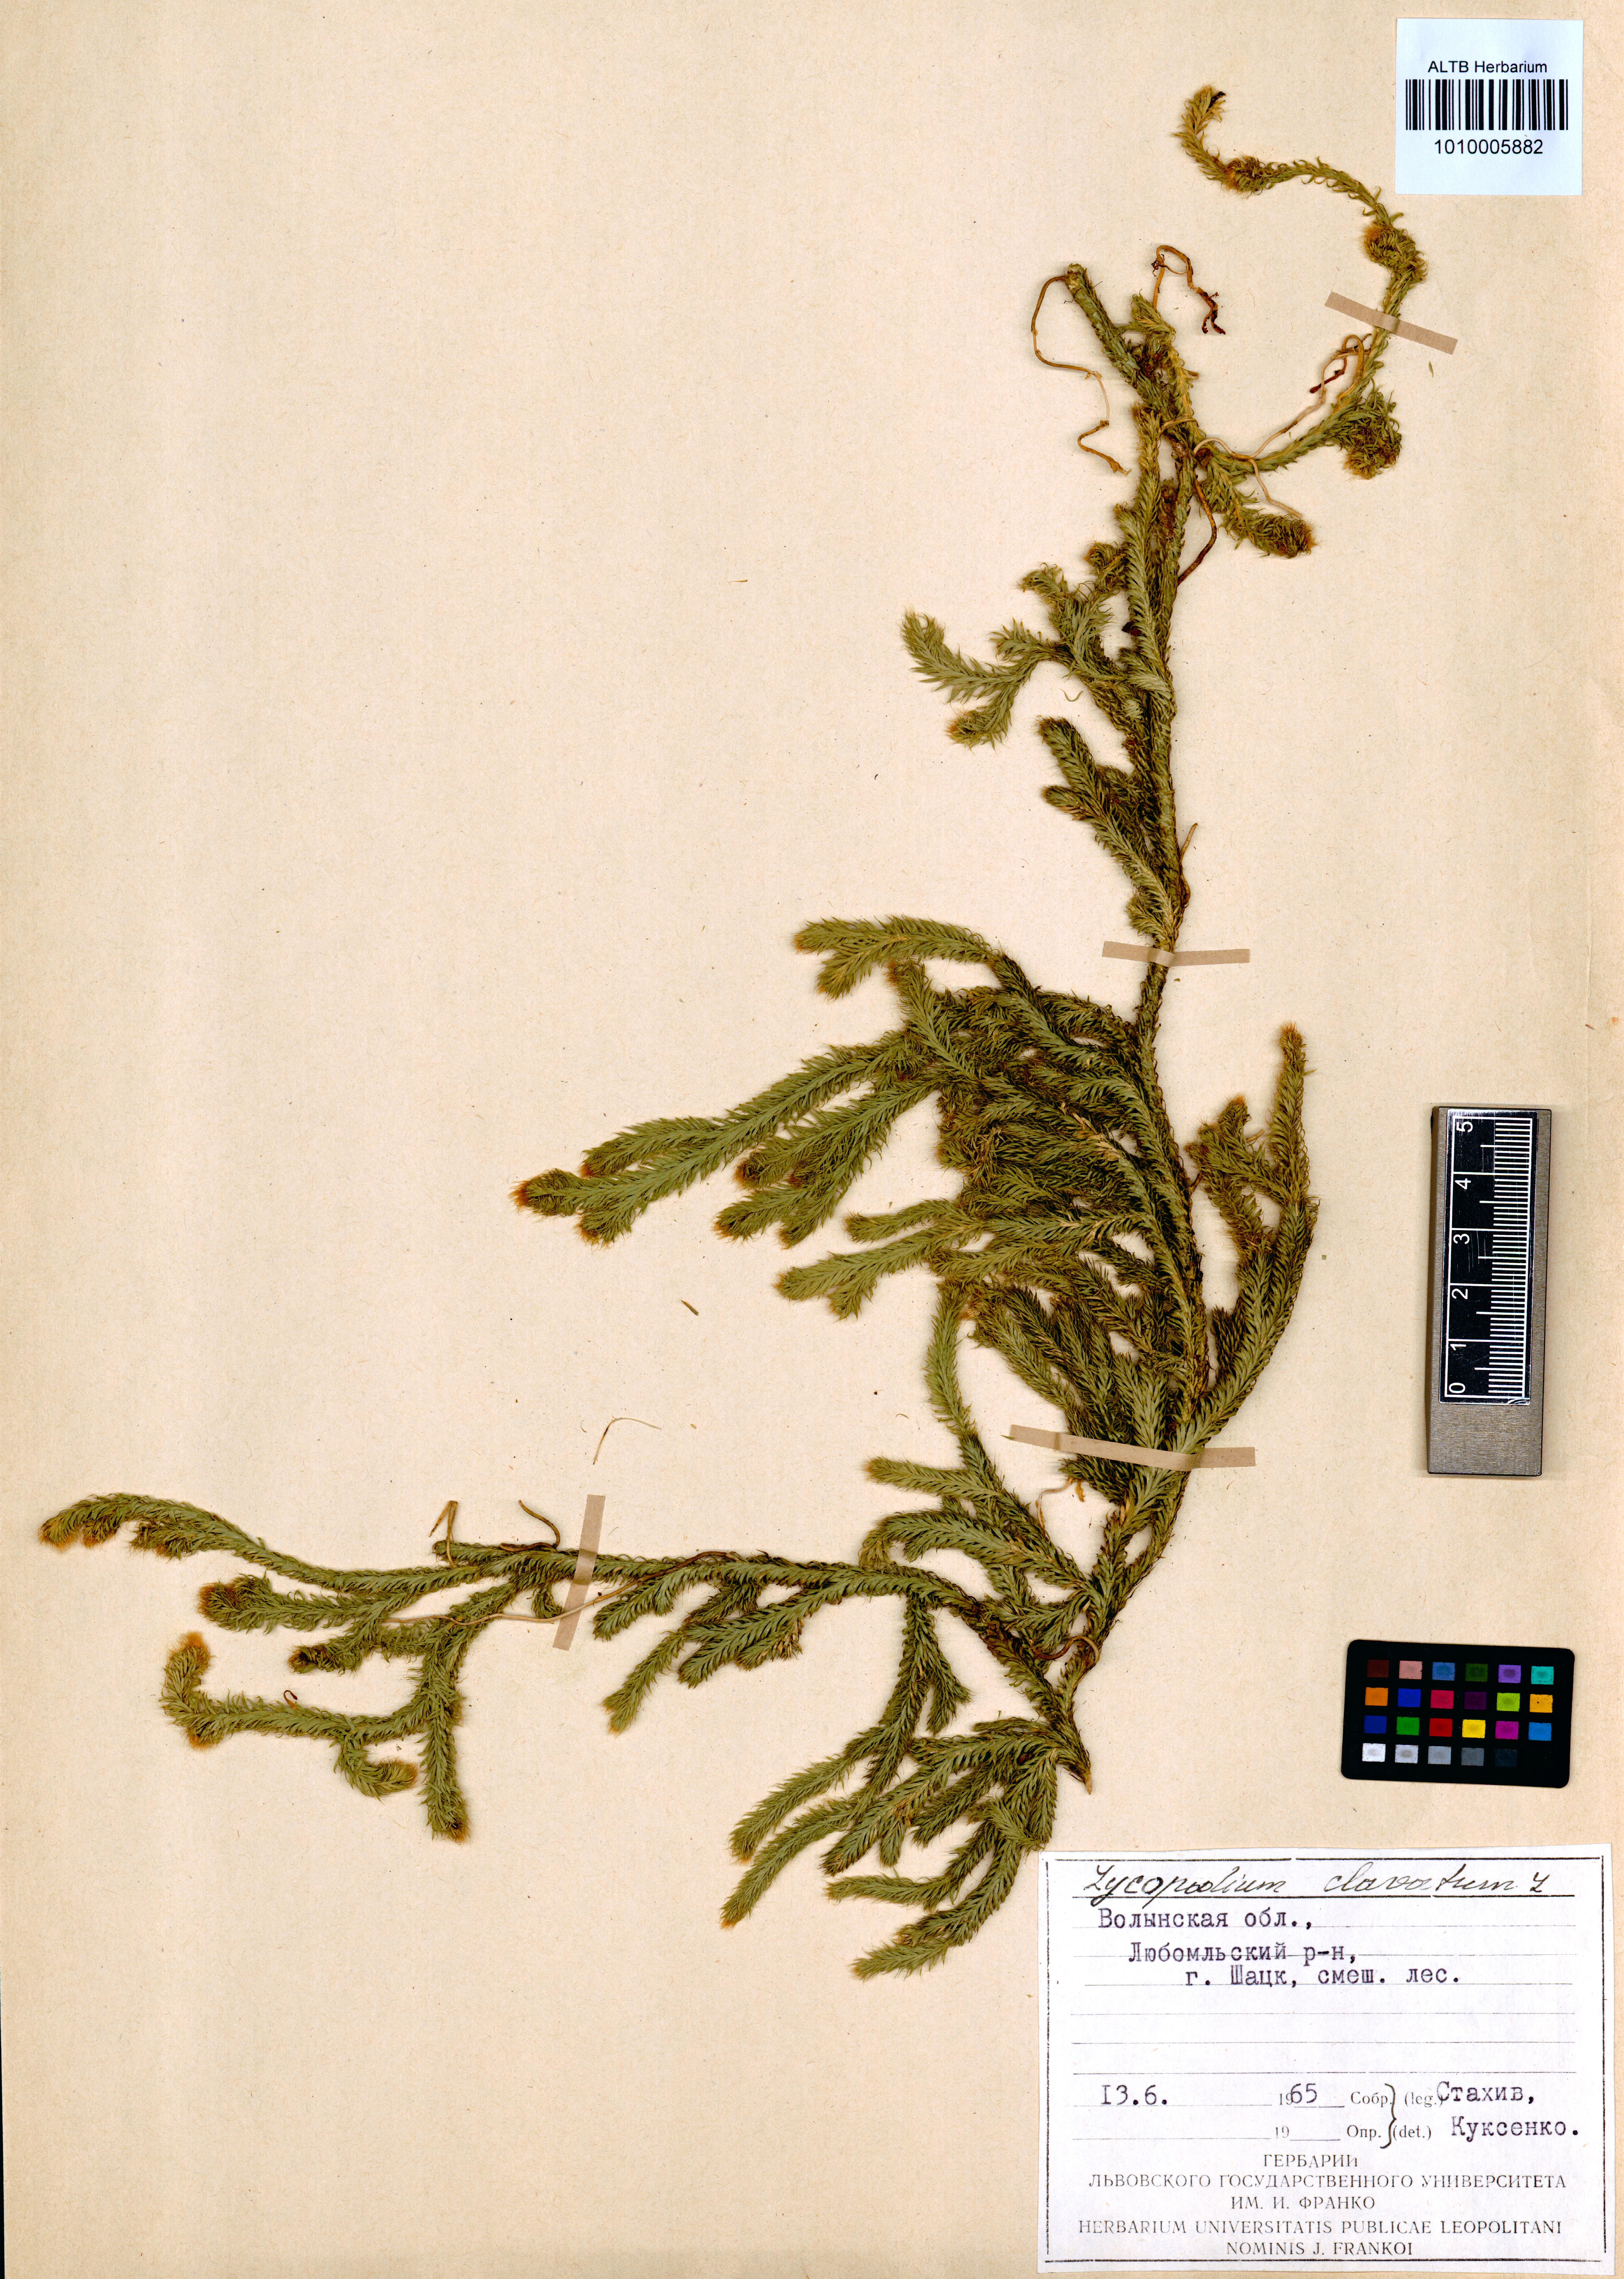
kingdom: Plantae
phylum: Tracheophyta
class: Lycopodiopsida
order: Lycopodiales
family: Lycopodiaceae
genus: Lycopodium
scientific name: Lycopodium clavatum
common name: Stag's-horn clubmoss
